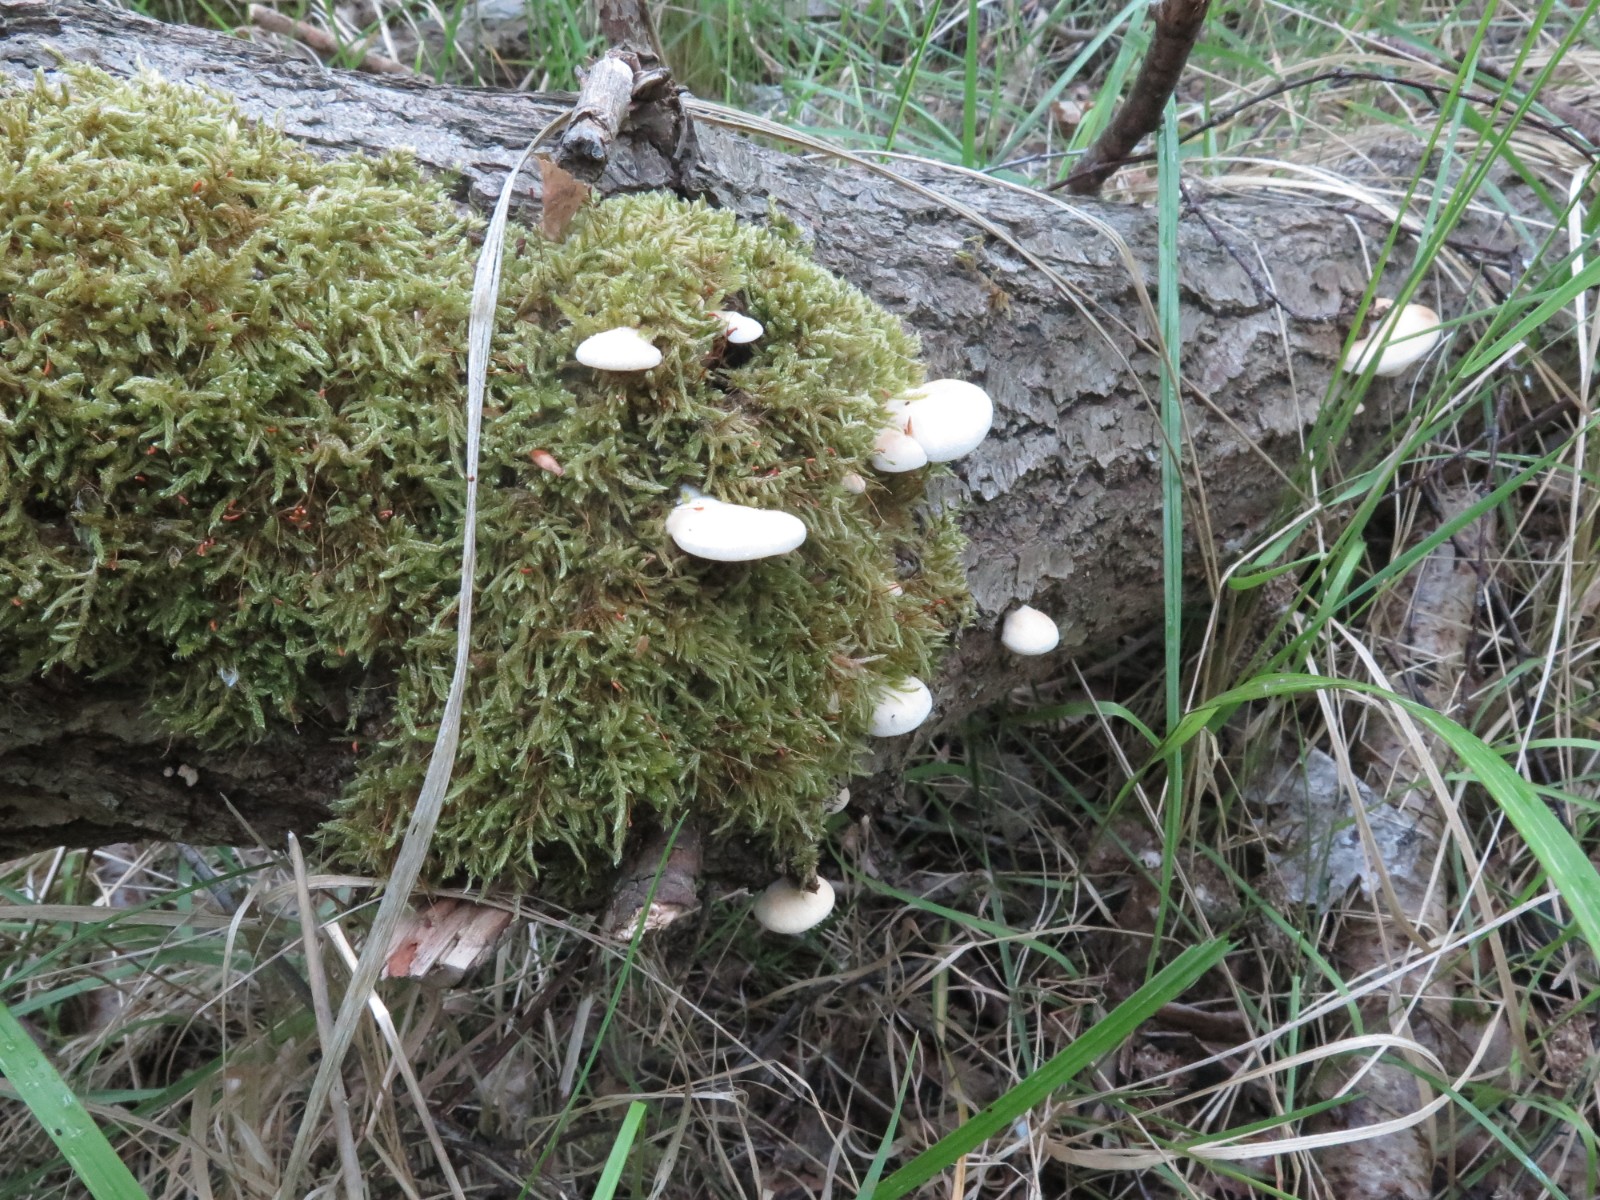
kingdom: Fungi
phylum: Basidiomycota
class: Agaricomycetes
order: Agaricales
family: Crepidotaceae
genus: Crepidotus
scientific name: Crepidotus mollis
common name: blød muslingesvamp
